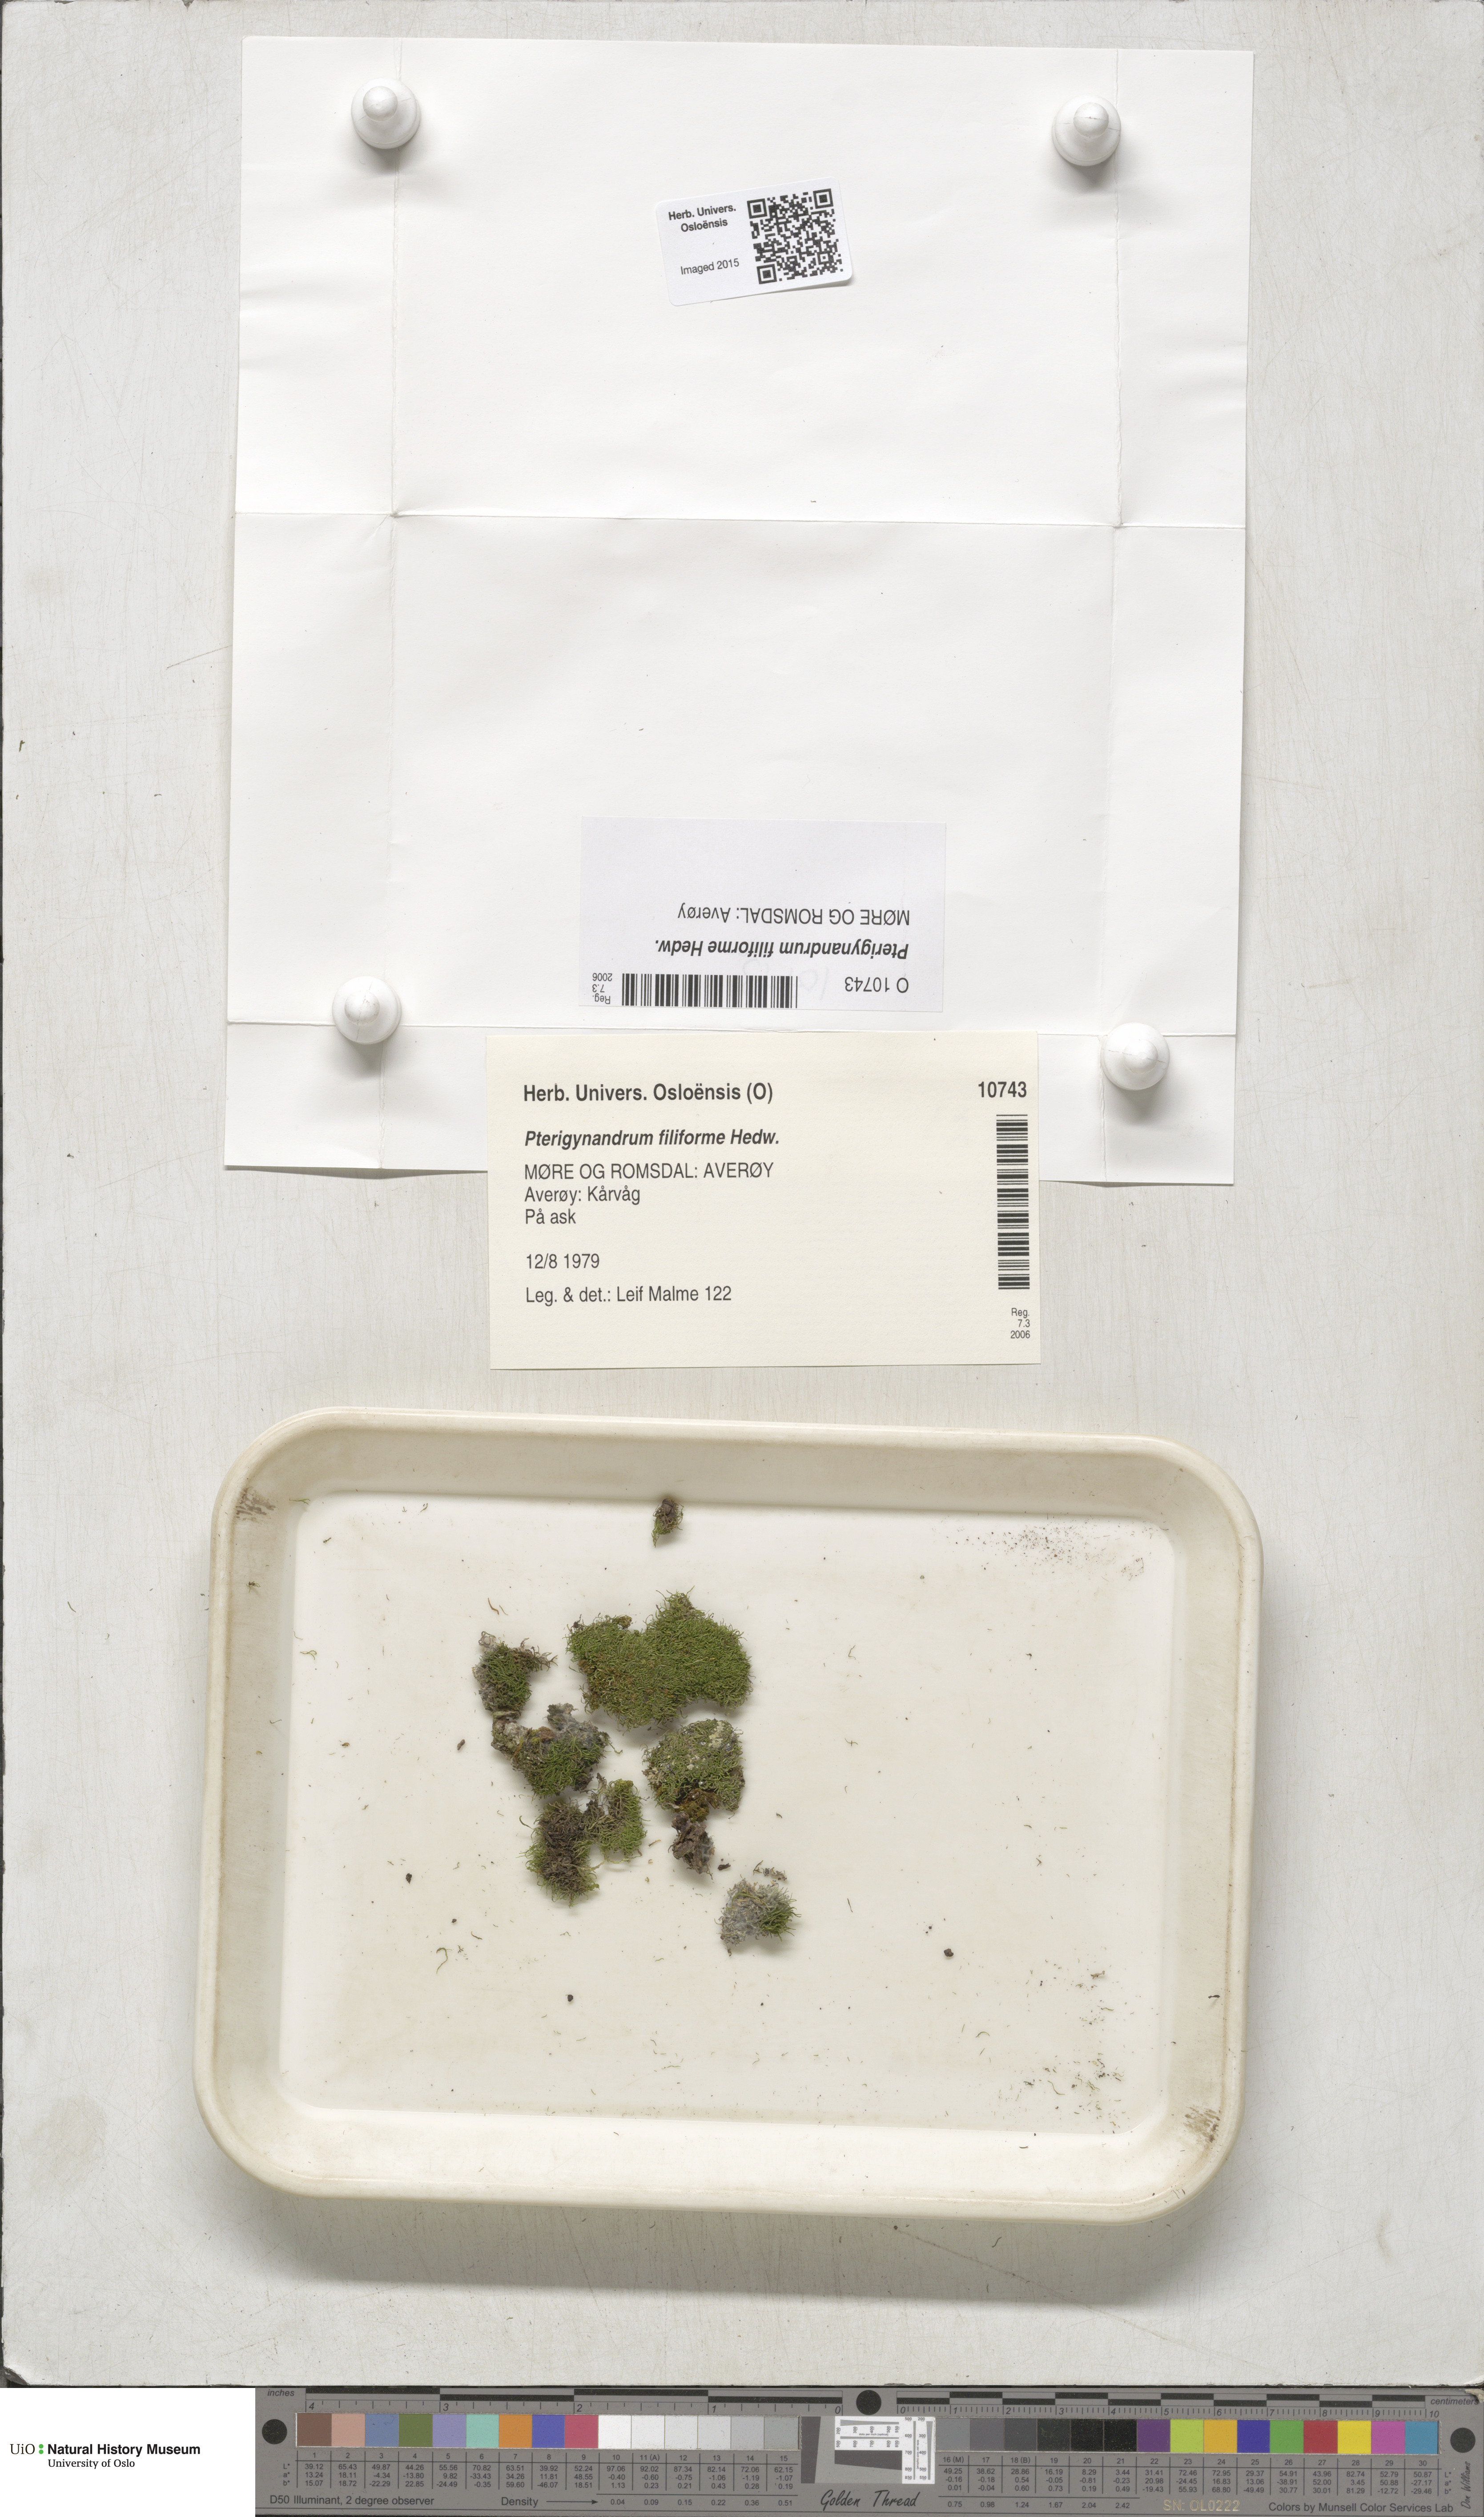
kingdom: Plantae
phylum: Bryophyta
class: Bryopsida
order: Hypnales
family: Pterigynandraceae
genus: Pterigynandrum
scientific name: Pterigynandrum filiforme
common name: Capillary wing moss
